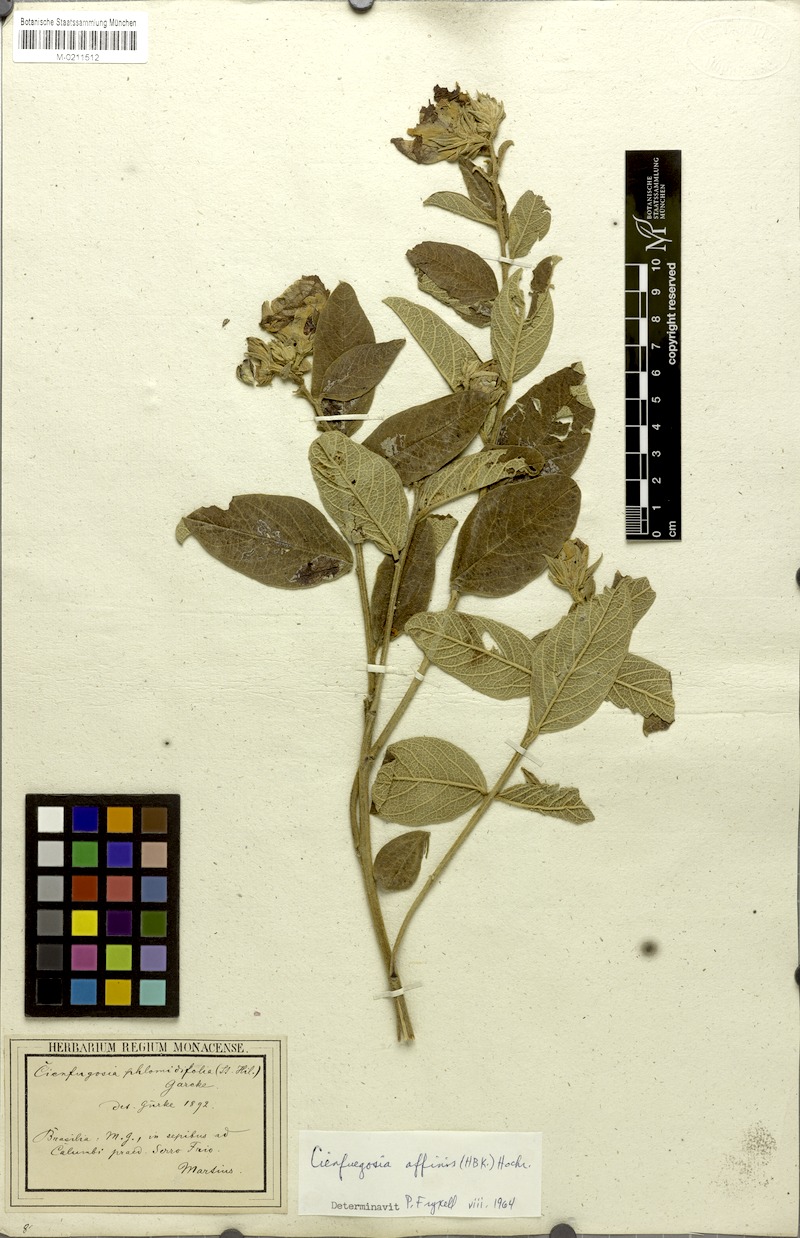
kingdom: Plantae
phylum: Tracheophyta
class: Magnoliopsida
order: Malvales
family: Malvaceae
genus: Cienfuegosia
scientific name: Cienfuegosia affinis
